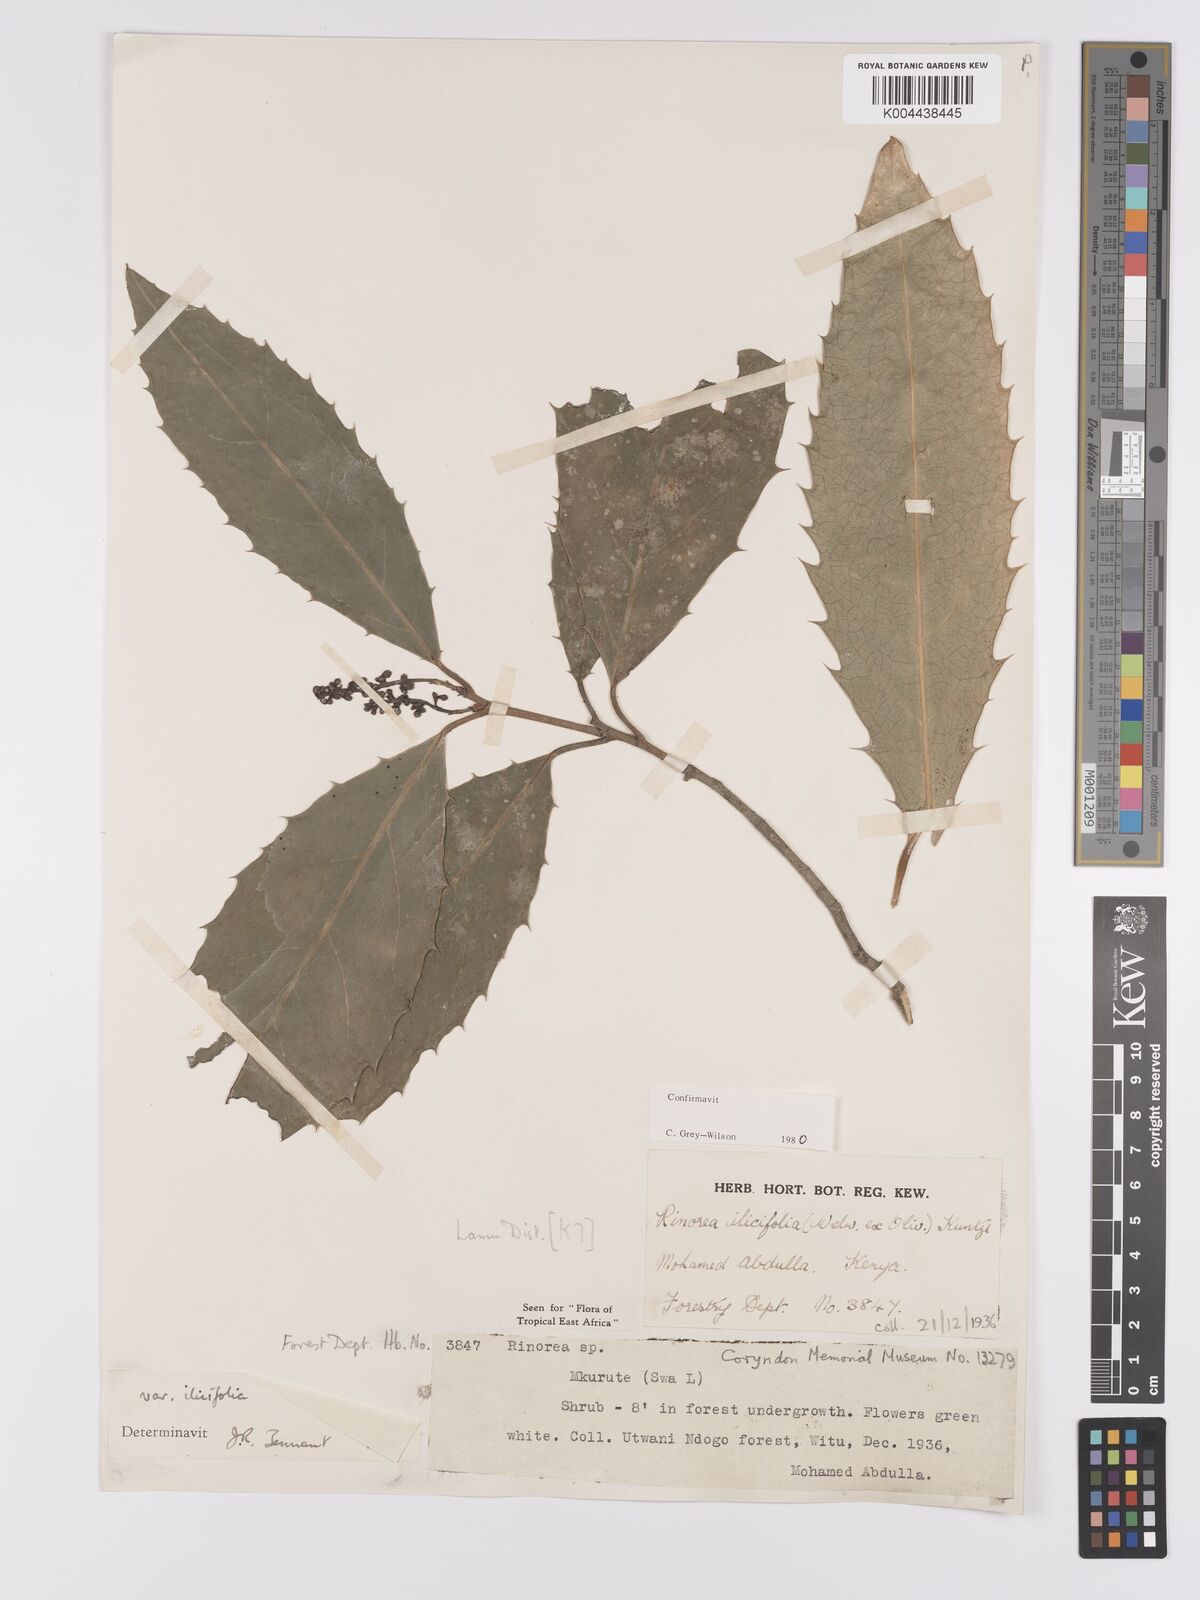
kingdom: Plantae
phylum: Tracheophyta
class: Magnoliopsida
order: Malpighiales
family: Violaceae
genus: Rinorea
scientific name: Rinorea ilicifolia
